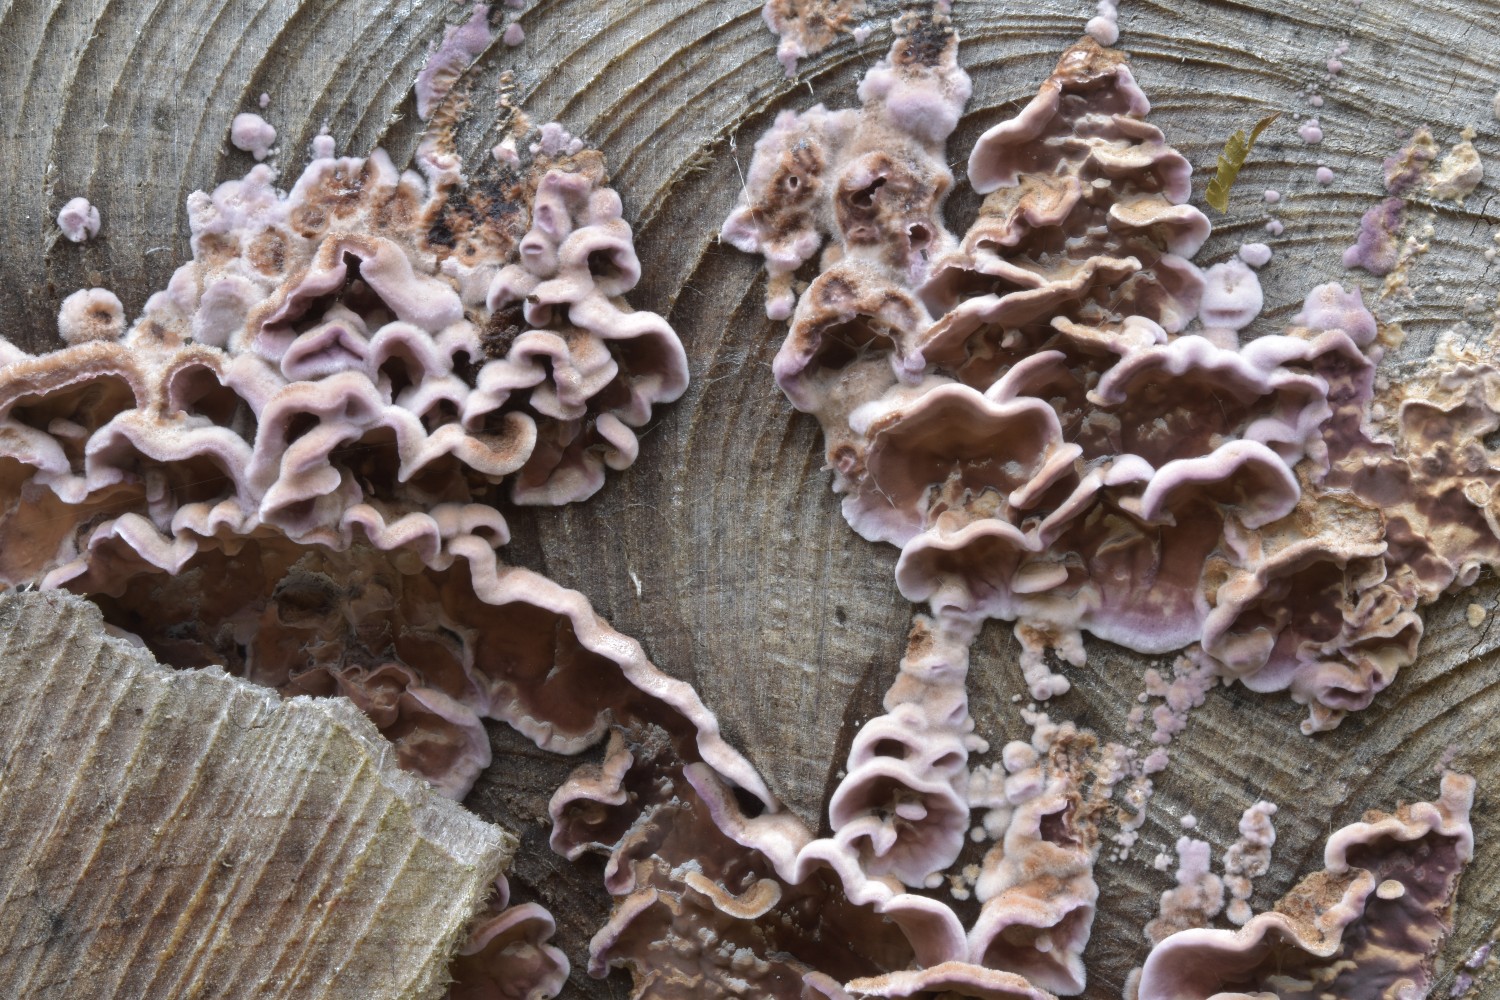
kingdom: Fungi
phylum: Basidiomycota
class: Agaricomycetes
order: Agaricales
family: Cyphellaceae
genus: Chondrostereum
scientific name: Chondrostereum purpureum
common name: purpurlædersvamp
